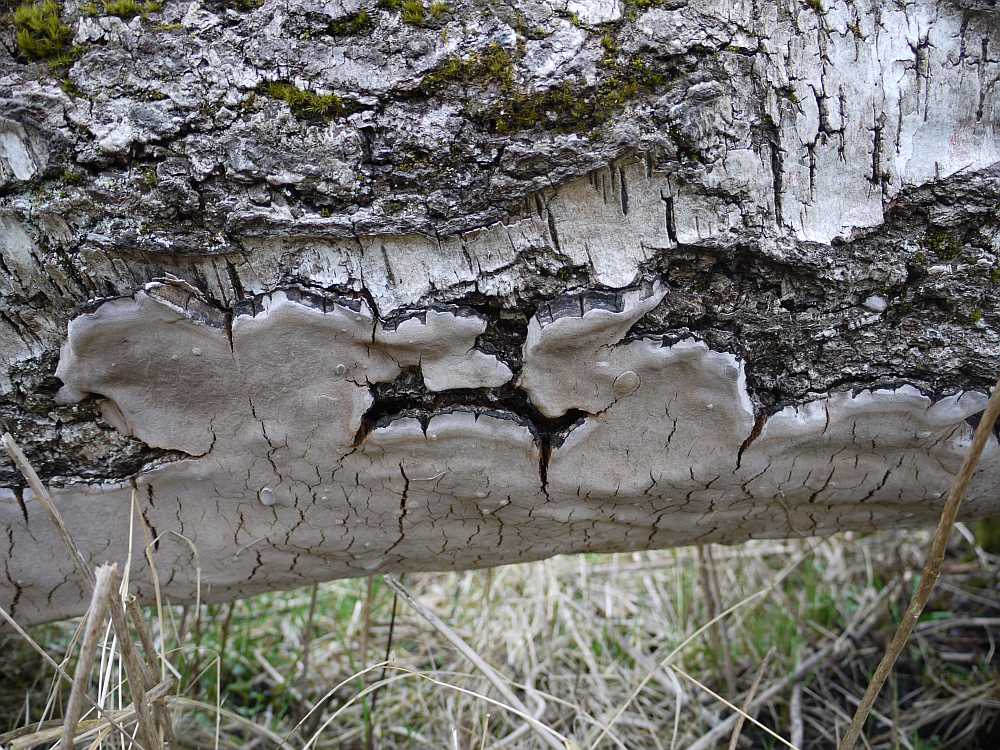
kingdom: Fungi
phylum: Basidiomycota
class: Agaricomycetes
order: Hymenochaetales
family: Hymenochaetaceae
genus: Phellinus
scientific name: Phellinus laevigatus
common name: glat ildporesvamp
